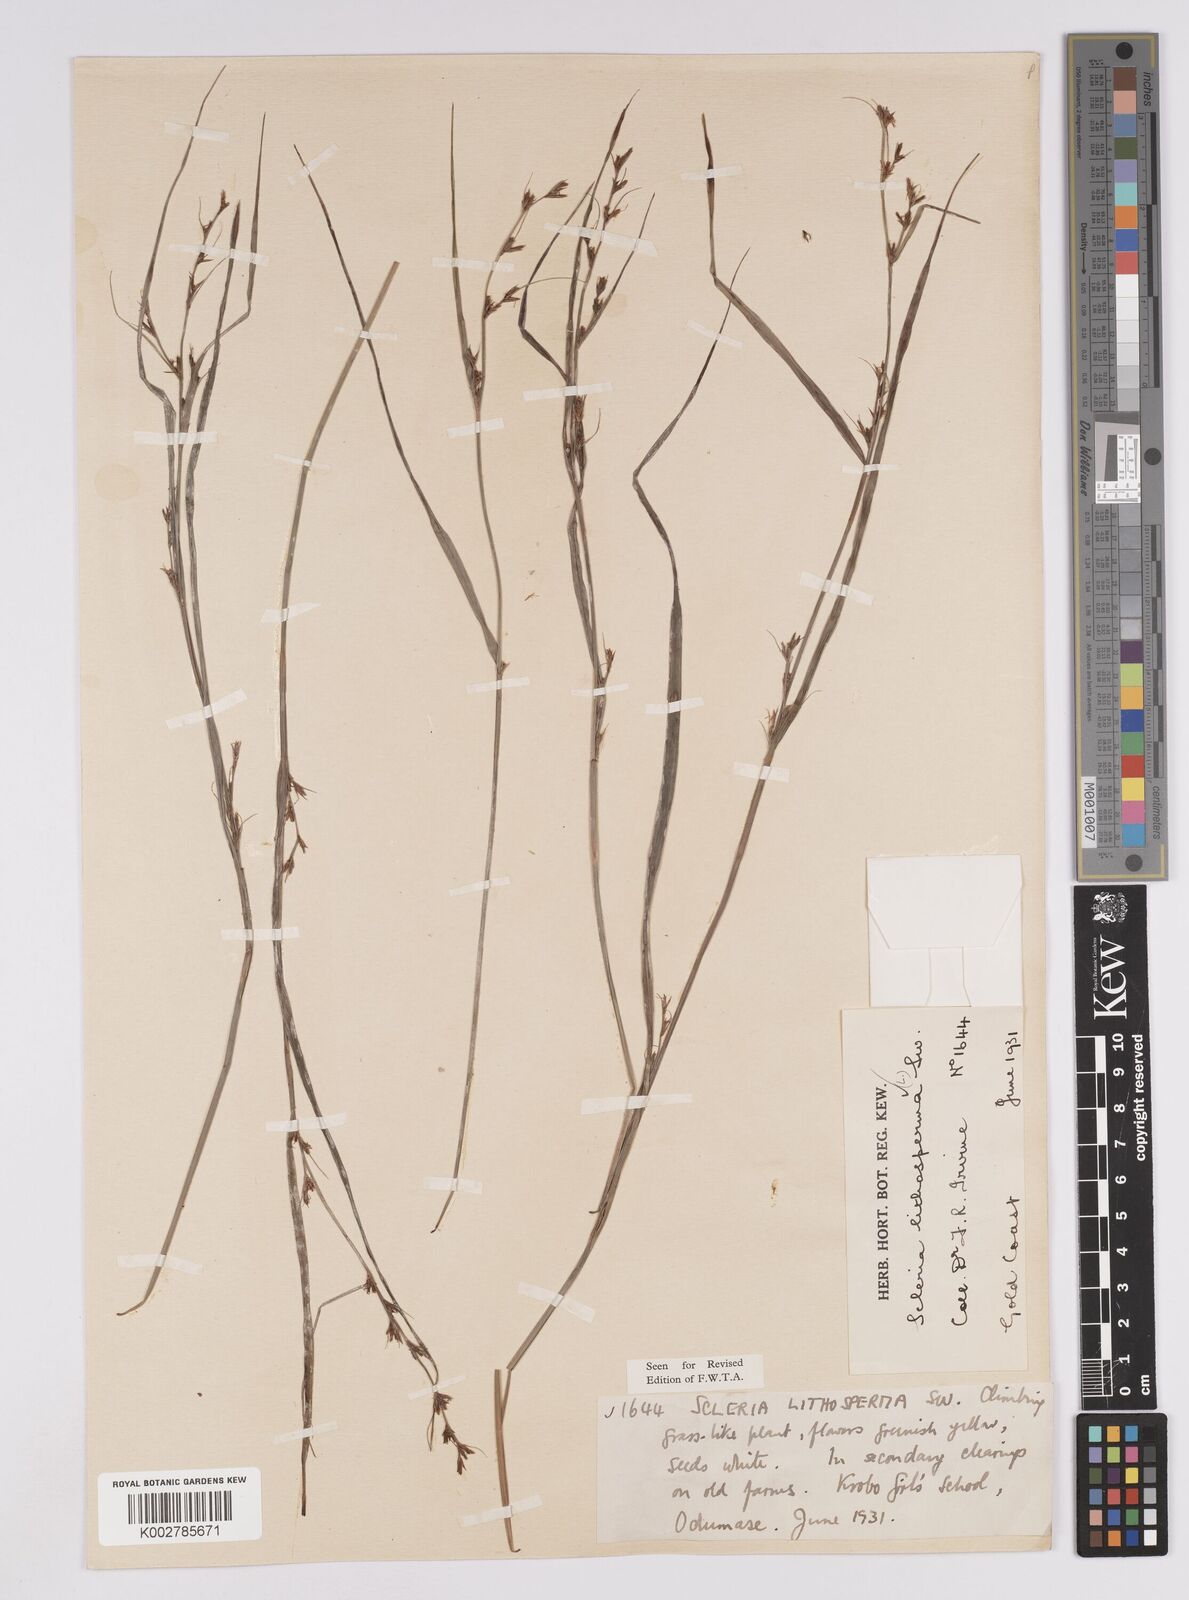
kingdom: Plantae
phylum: Tracheophyta
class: Liliopsida
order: Poales
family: Cyperaceae
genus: Scleria
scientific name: Scleria lithosperma
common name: Florida keys nut-rush
